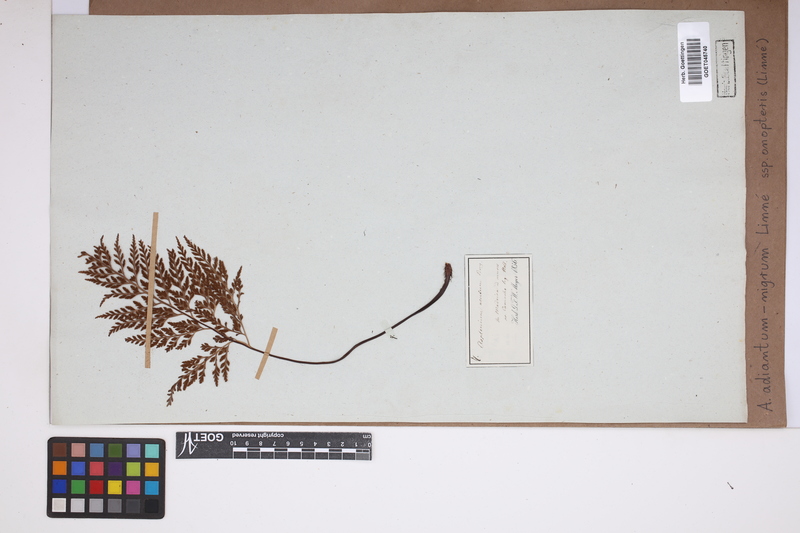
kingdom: Plantae
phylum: Tracheophyta
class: Polypodiopsida
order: Polypodiales
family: Aspleniaceae
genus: Asplenium
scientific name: Asplenium onopteris
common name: Irish spleenwort
